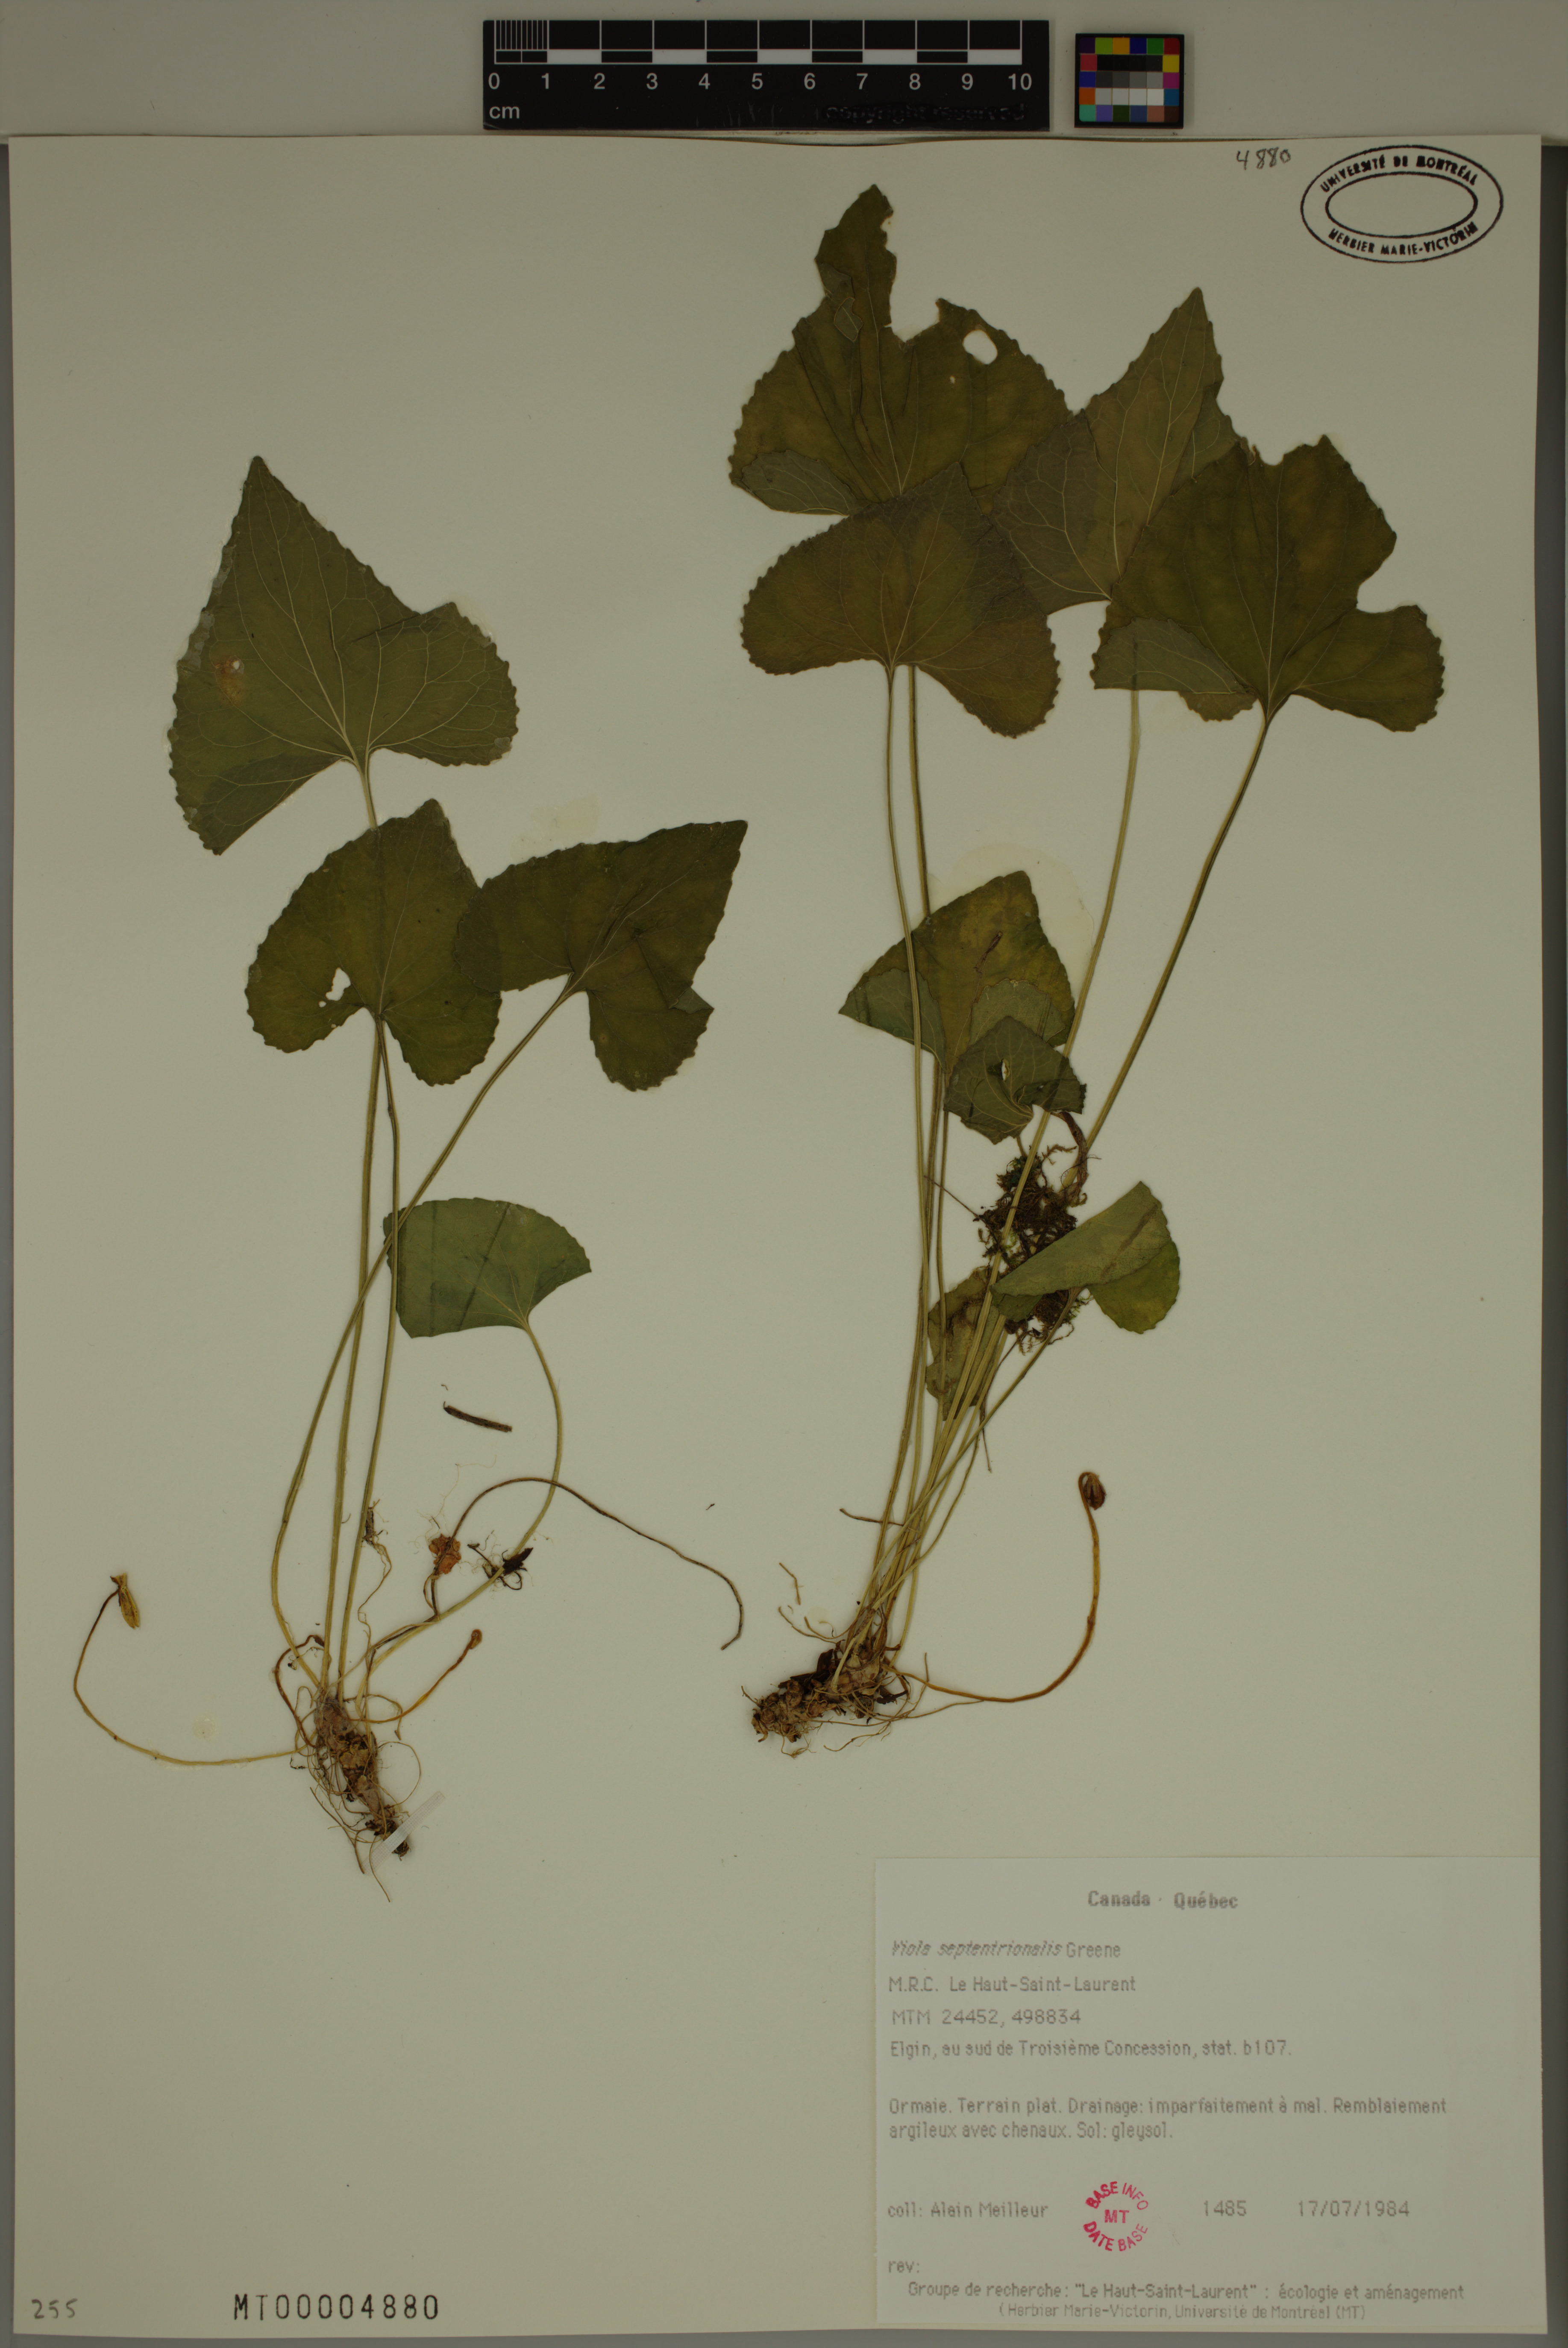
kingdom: Plantae
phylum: Tracheophyta
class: Magnoliopsida
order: Malpighiales
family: Violaceae
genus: Viola
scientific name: Viola sororia
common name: Dooryard violet
